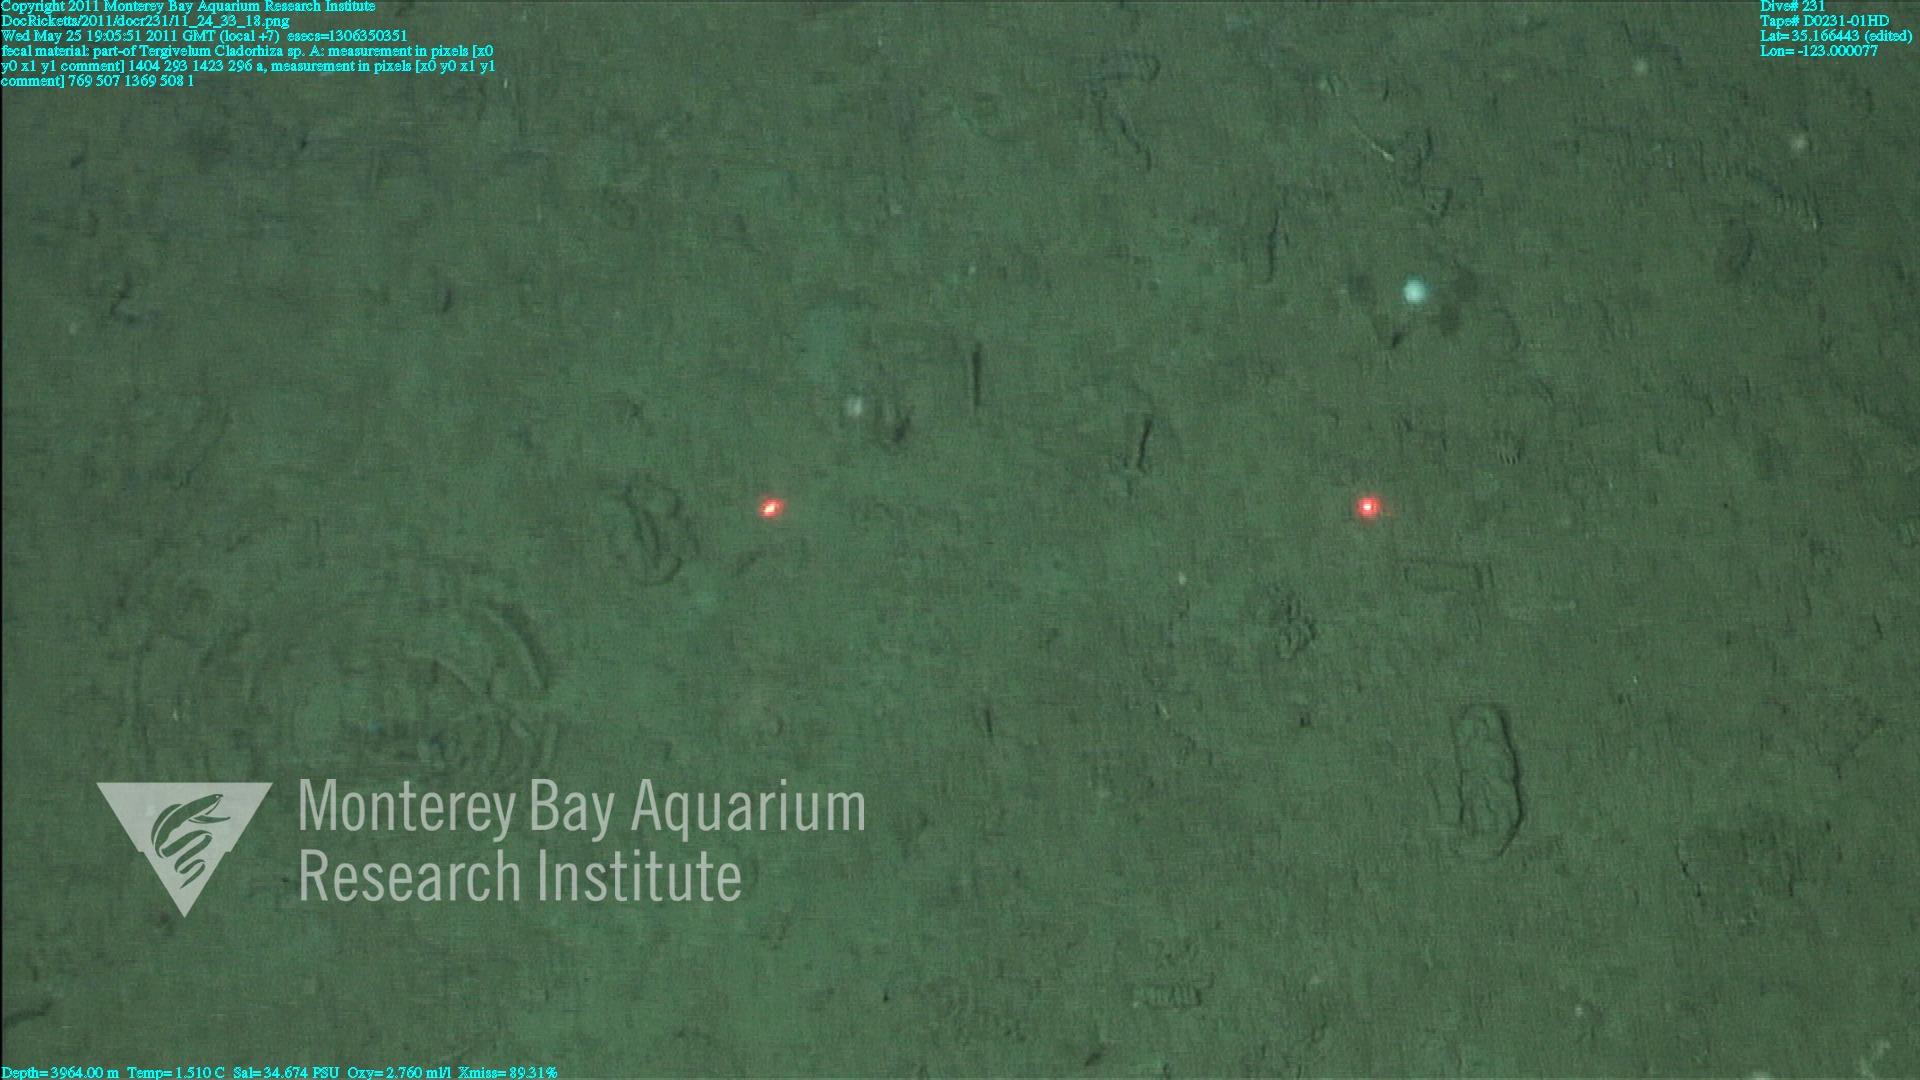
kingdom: Animalia
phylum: Porifera
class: Demospongiae
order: Poecilosclerida
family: Cladorhizidae
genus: Cladorhiza
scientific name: Cladorhiza
